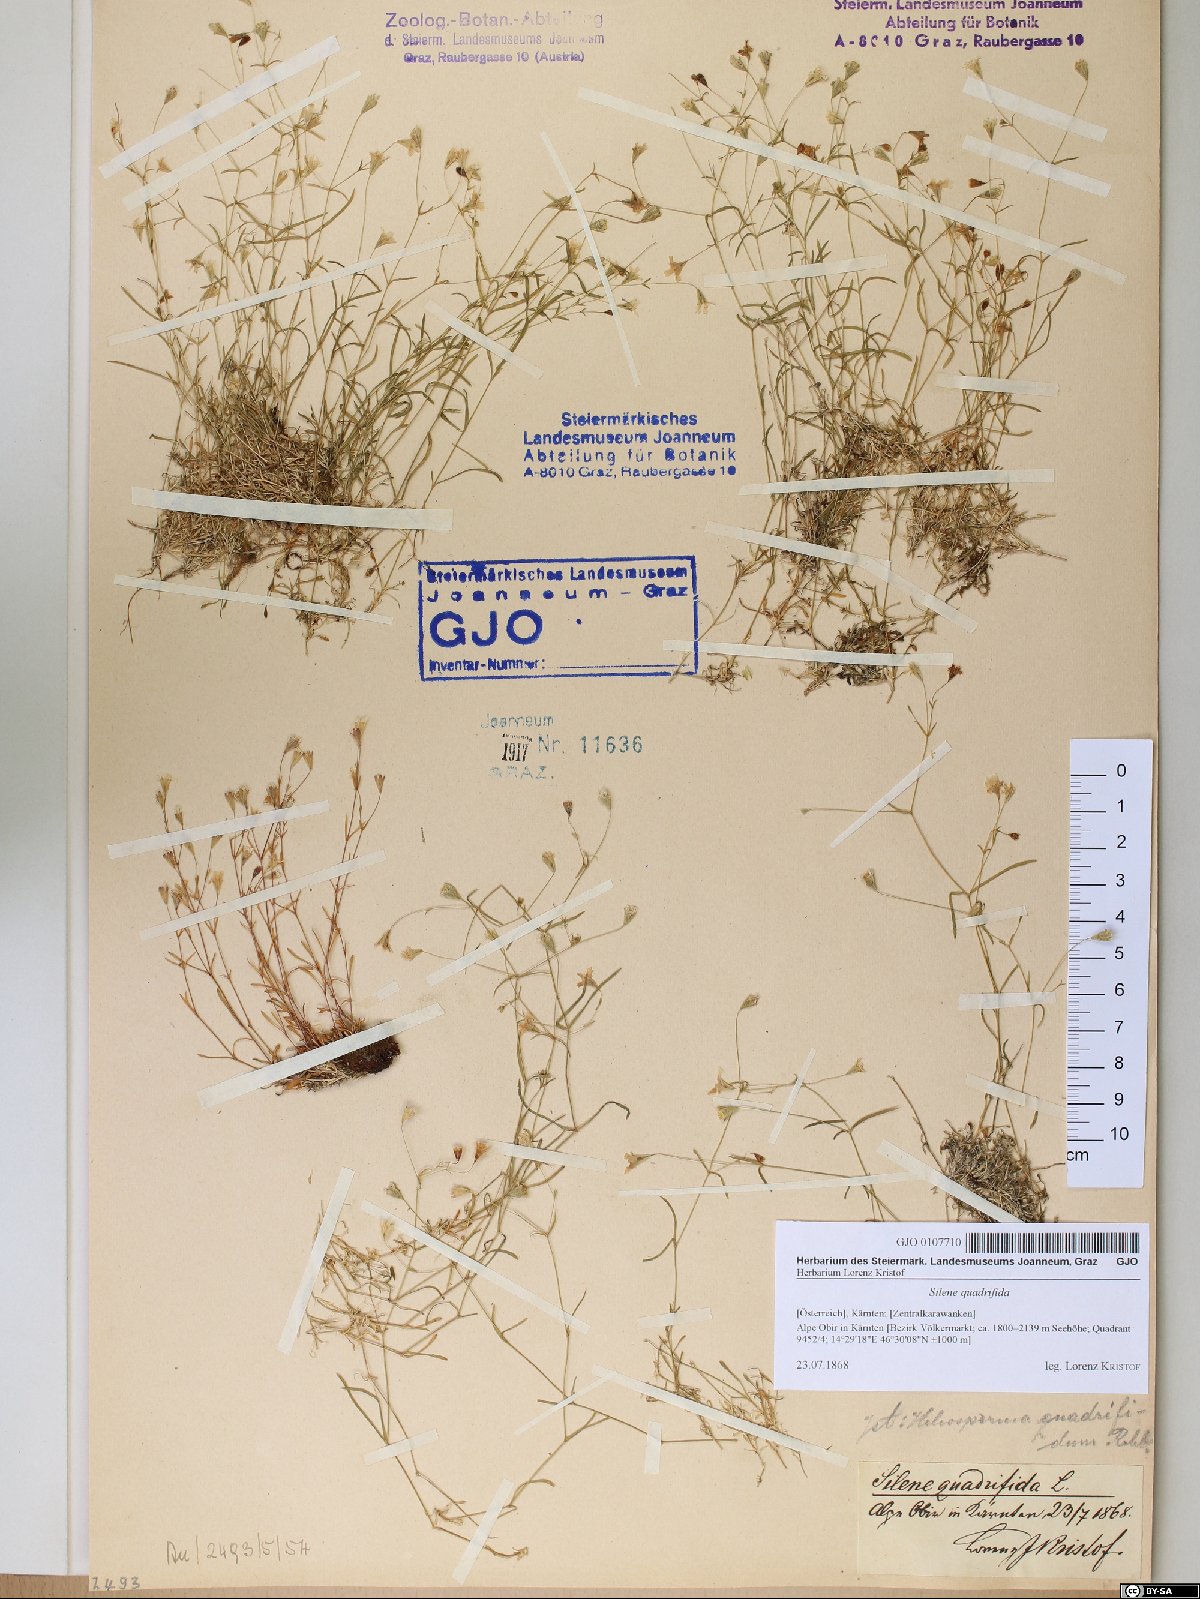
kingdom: Plantae
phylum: Tracheophyta
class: Magnoliopsida
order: Caryophyllales
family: Caryophyllaceae
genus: Heliosperma
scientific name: Heliosperma alpestre
